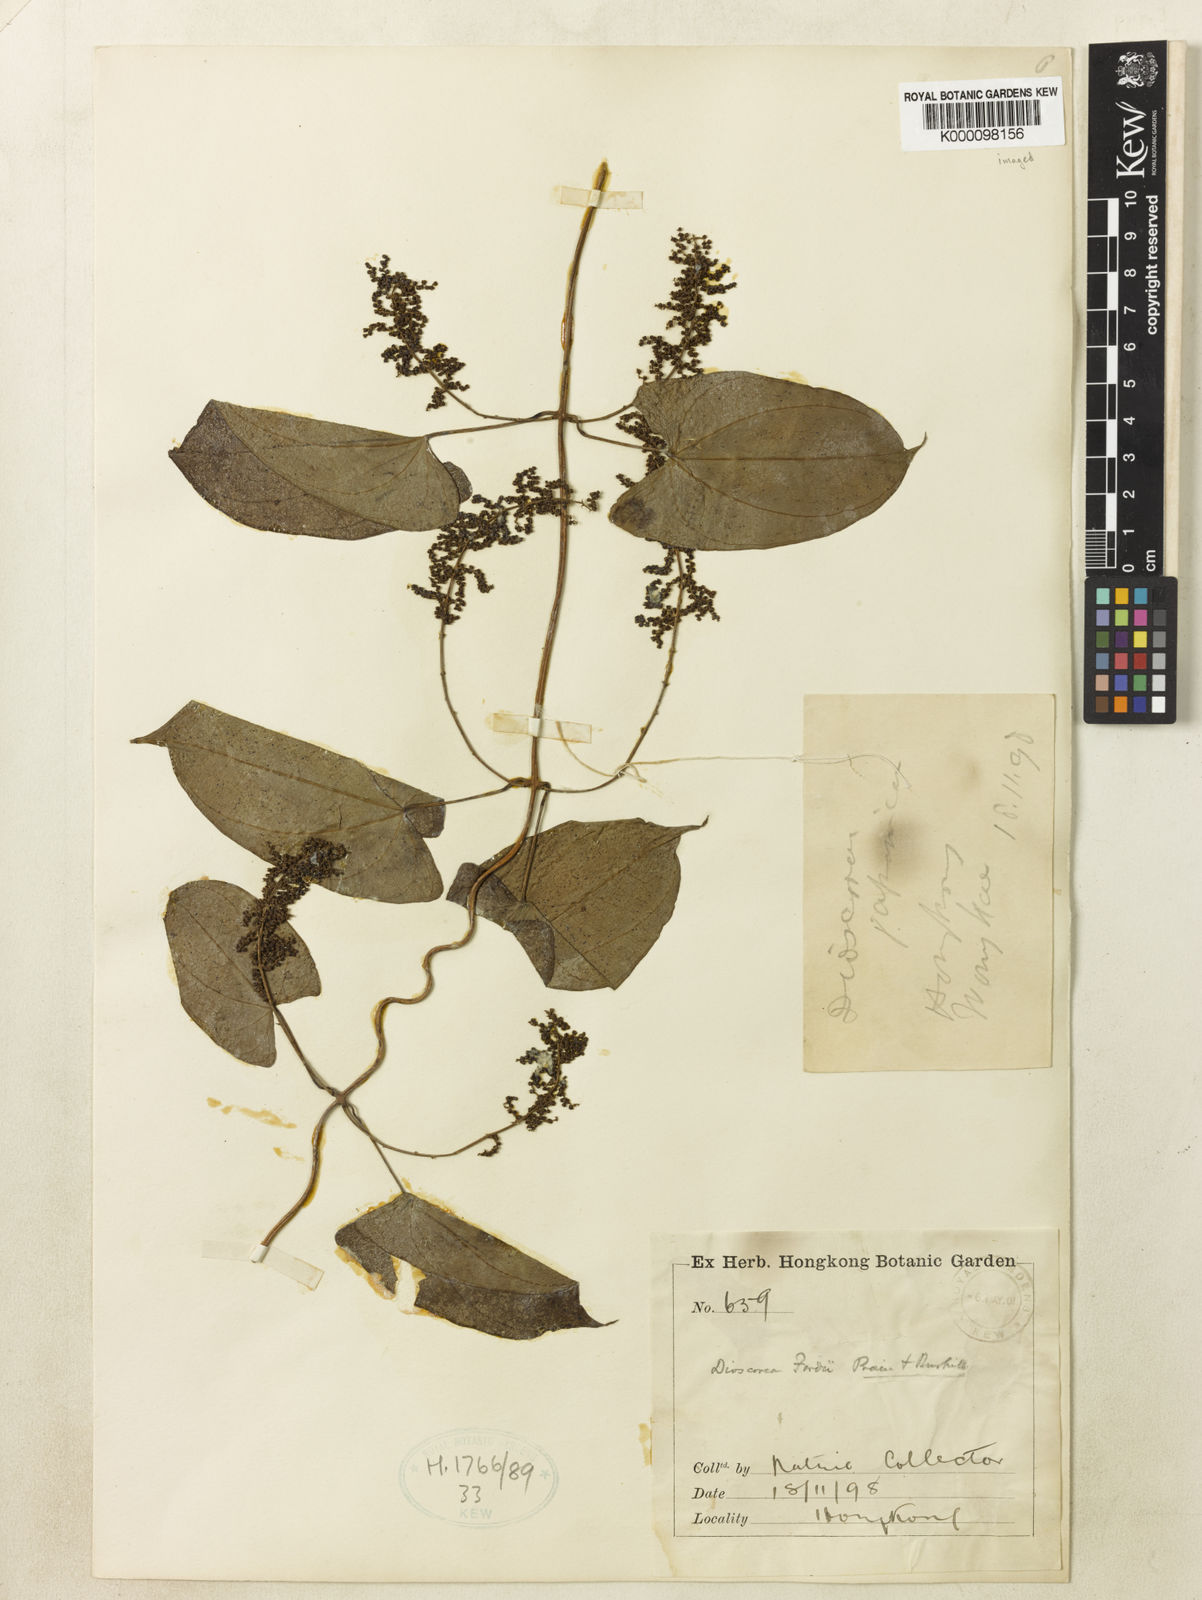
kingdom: Plantae
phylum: Tracheophyta
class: Liliopsida
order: Dioscoreales
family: Dioscoreaceae
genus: Dioscorea
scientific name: Dioscorea fordii
